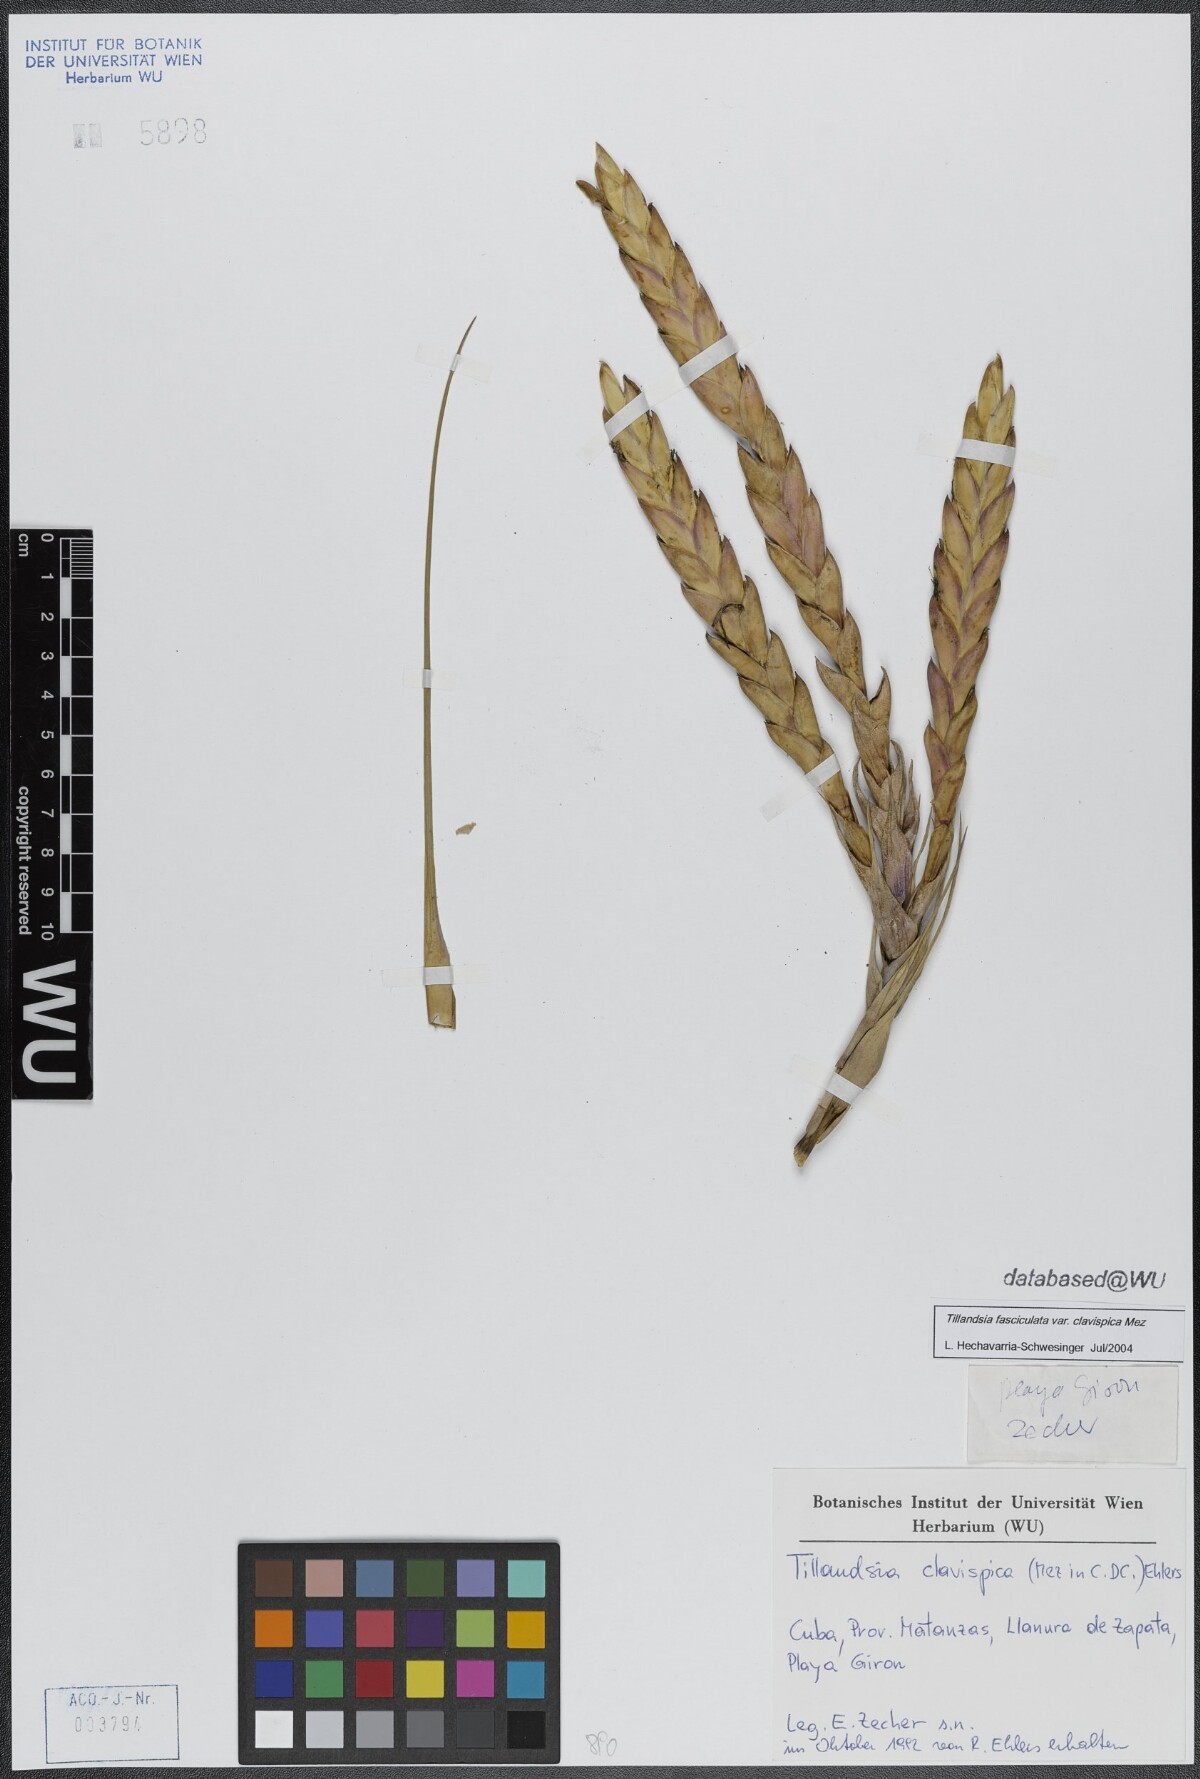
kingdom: Plantae
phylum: Tracheophyta
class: Liliopsida
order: Poales
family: Bromeliaceae
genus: Tillandsia
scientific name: Tillandsia fasciculata
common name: Giant airplant
